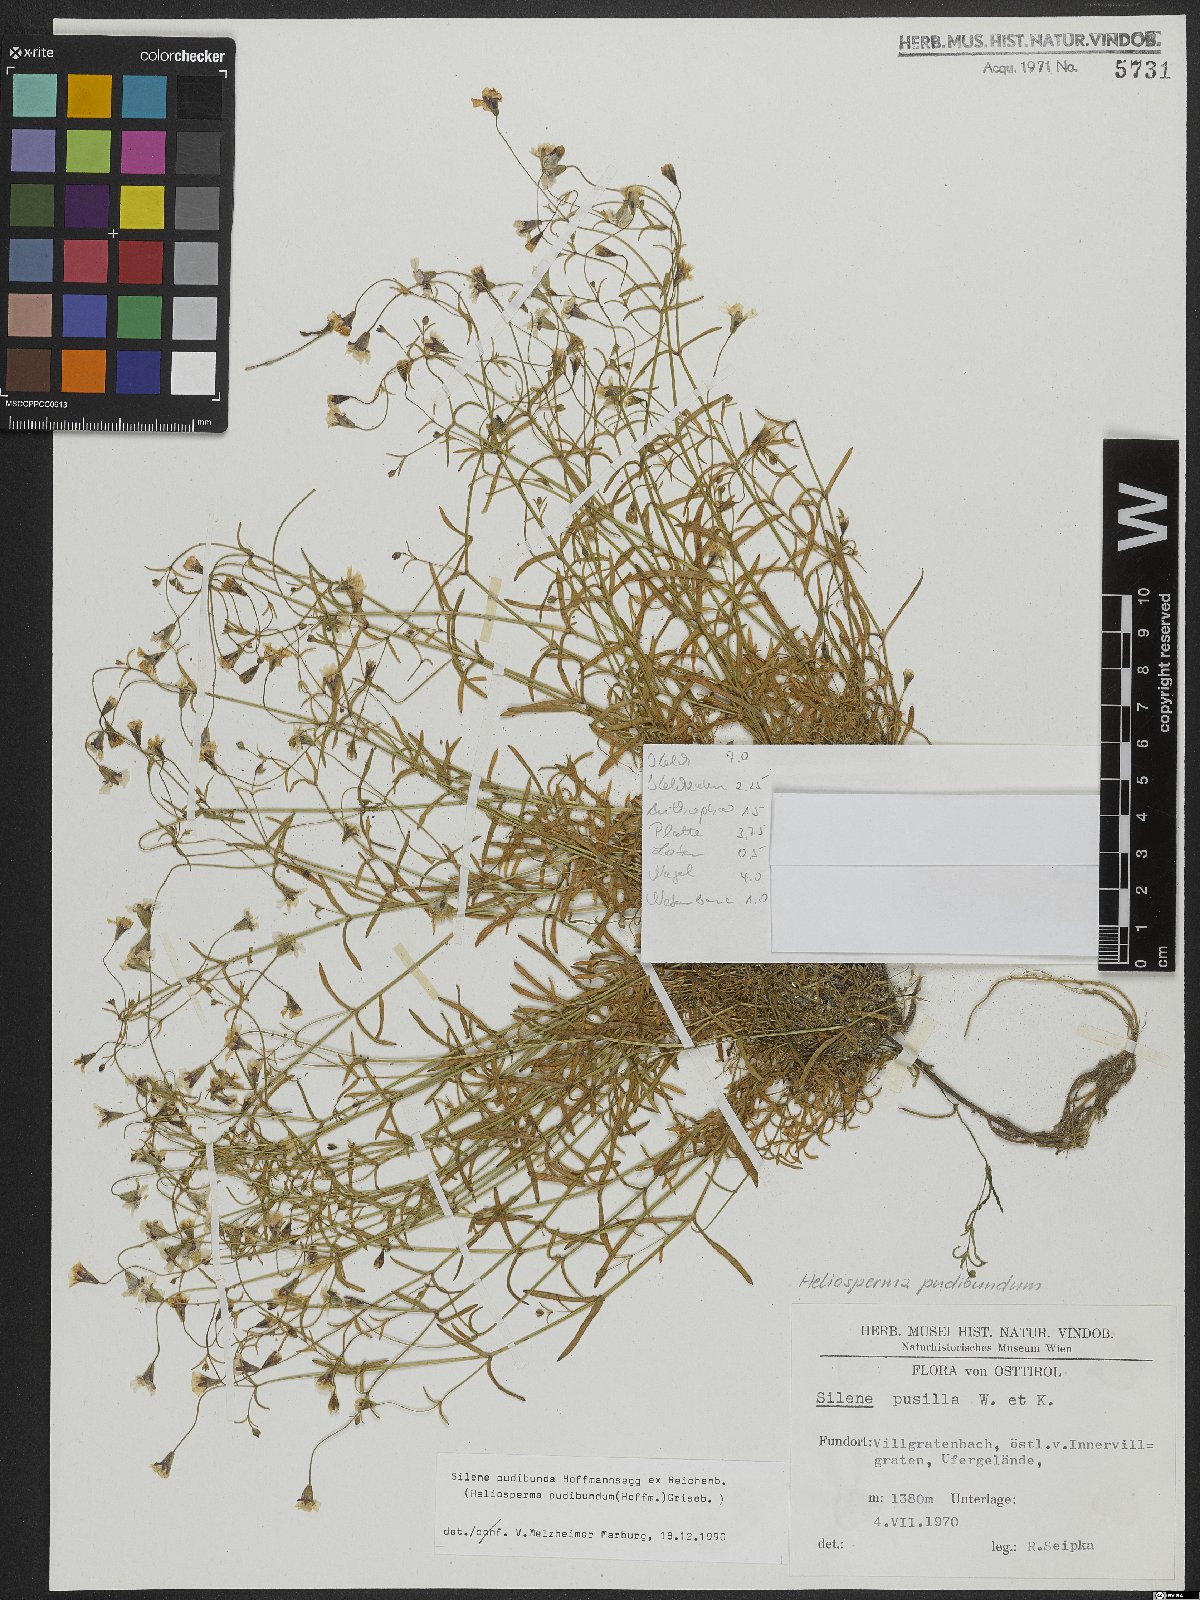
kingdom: Plantae
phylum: Tracheophyta
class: Magnoliopsida
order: Caryophyllales
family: Caryophyllaceae
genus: Heliosperma
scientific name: Heliosperma pudibundum
